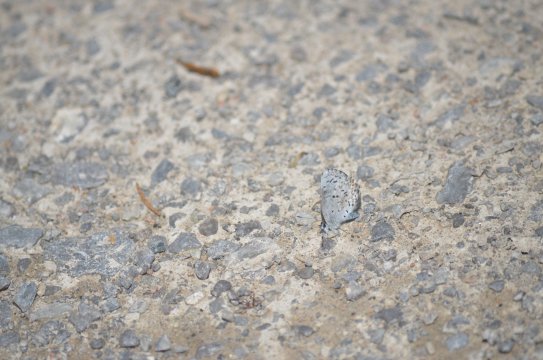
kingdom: Animalia
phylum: Arthropoda
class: Insecta
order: Lepidoptera
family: Lycaenidae
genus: Celastrina
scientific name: Celastrina lucia
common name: Northern Spring Azure
